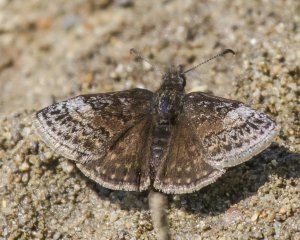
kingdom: Animalia
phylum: Arthropoda
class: Insecta
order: Lepidoptera
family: Hesperiidae
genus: Erynnis
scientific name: Erynnis icelus
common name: Dreamy Duskywing
